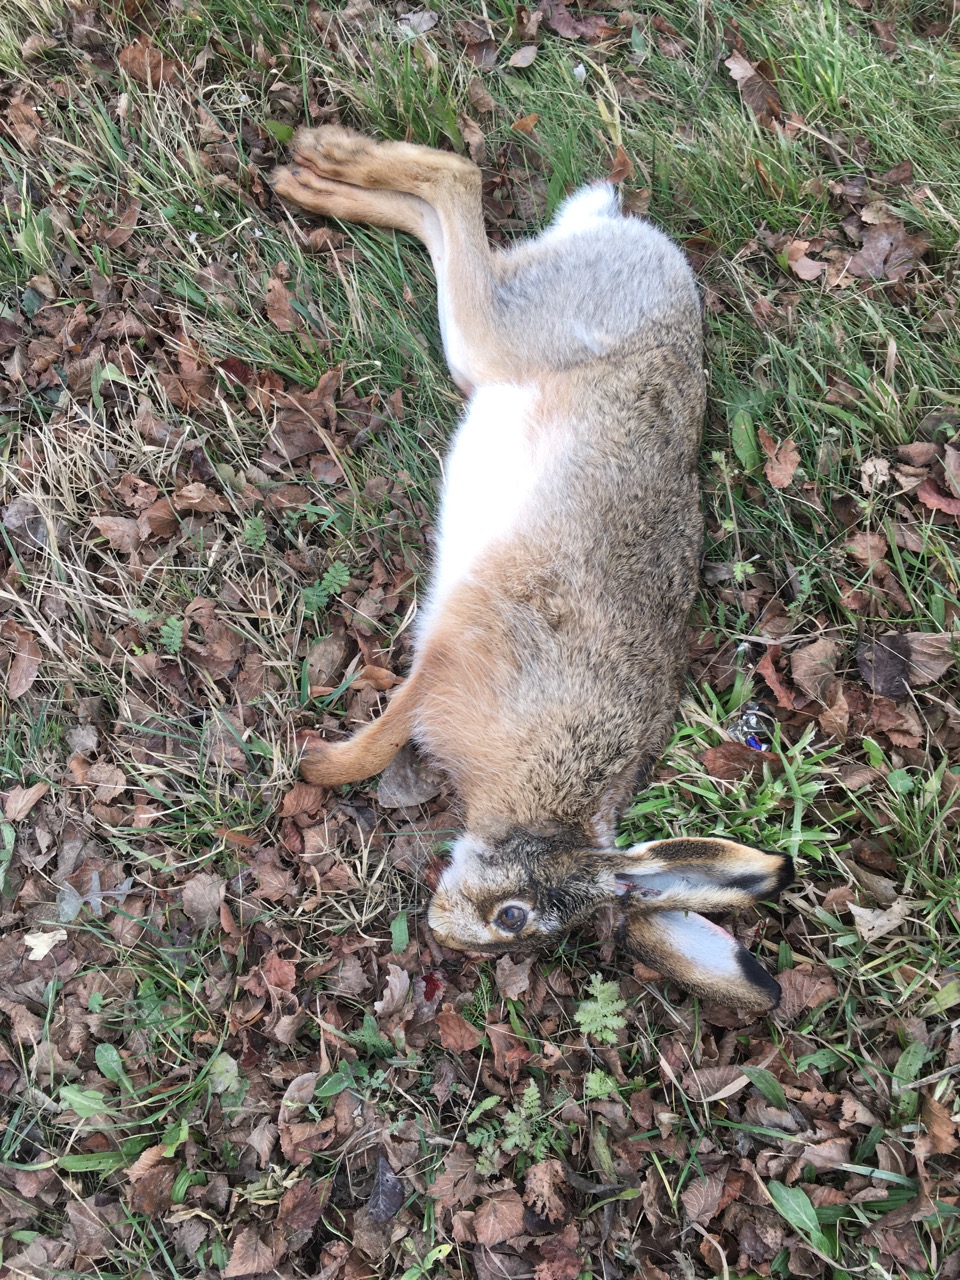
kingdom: Animalia
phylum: Chordata
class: Mammalia
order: Lagomorpha
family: Leporidae
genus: Lepus
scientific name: Lepus europaeus
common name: European hare
